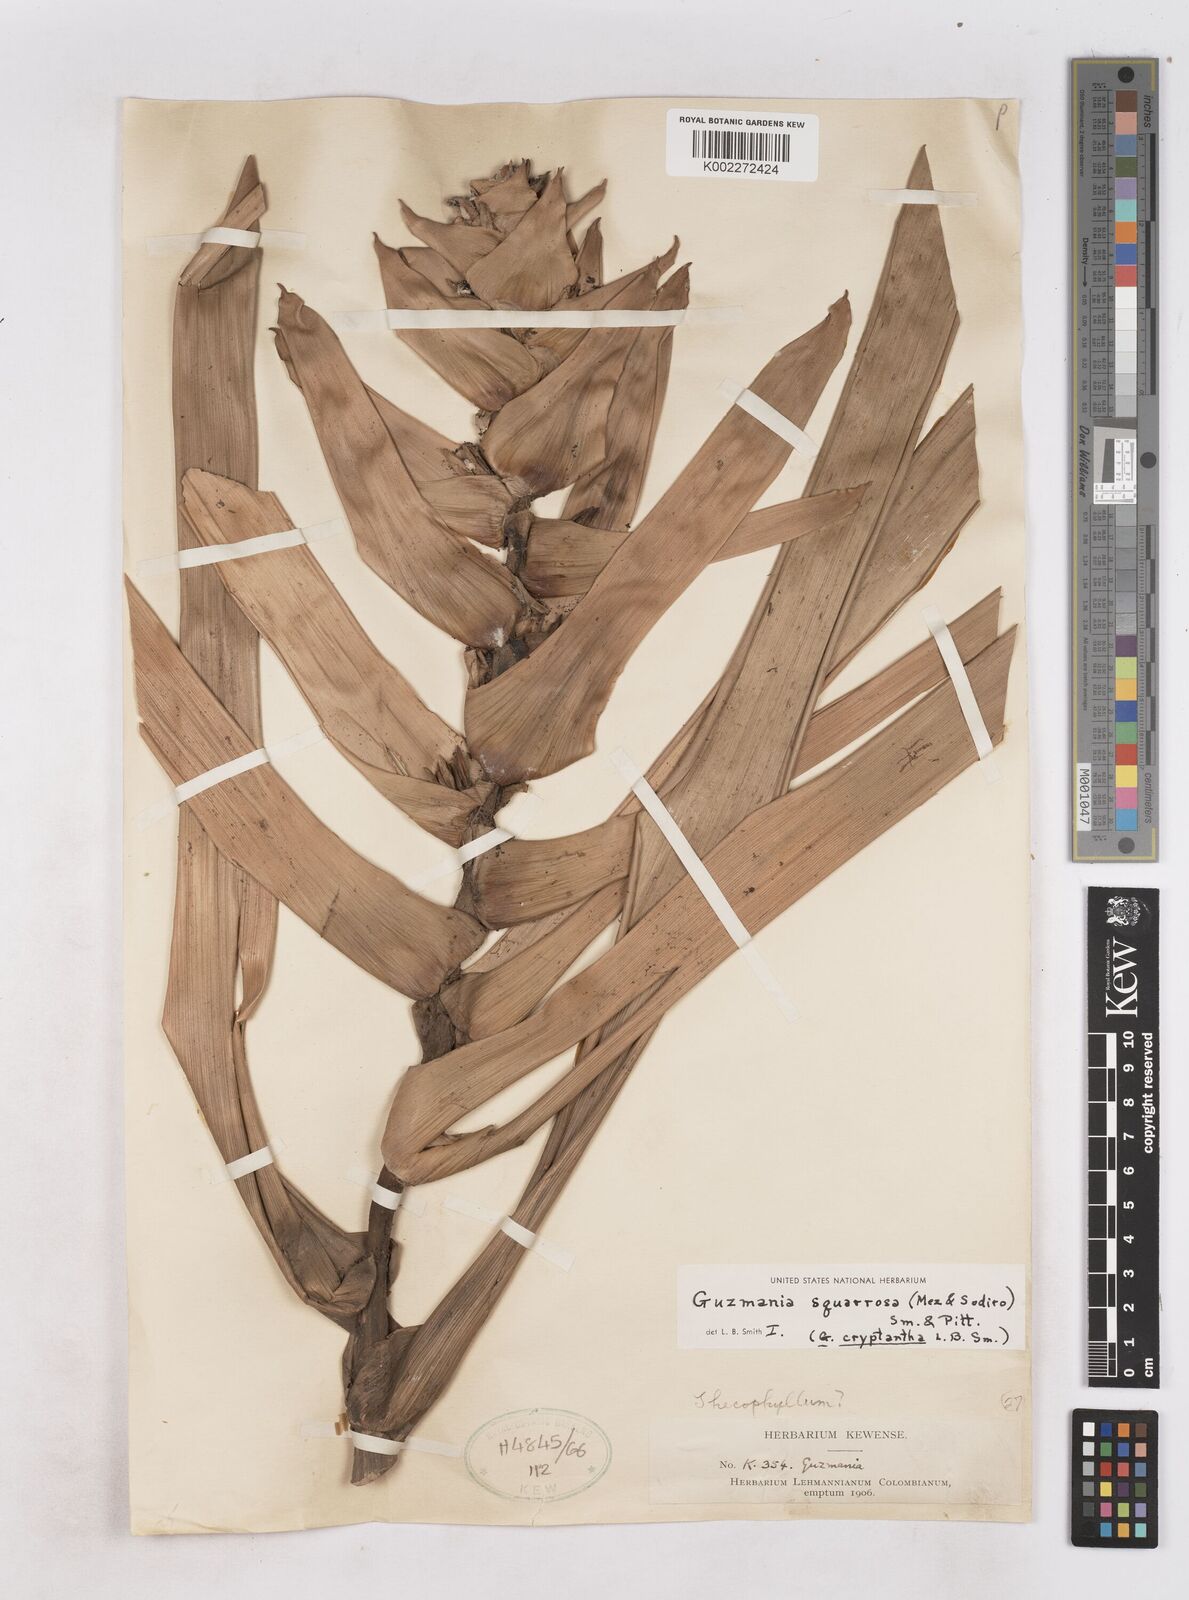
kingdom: Plantae
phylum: Tracheophyta
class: Liliopsida
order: Poales
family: Bromeliaceae
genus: Guzmania
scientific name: Guzmania squarrosa
